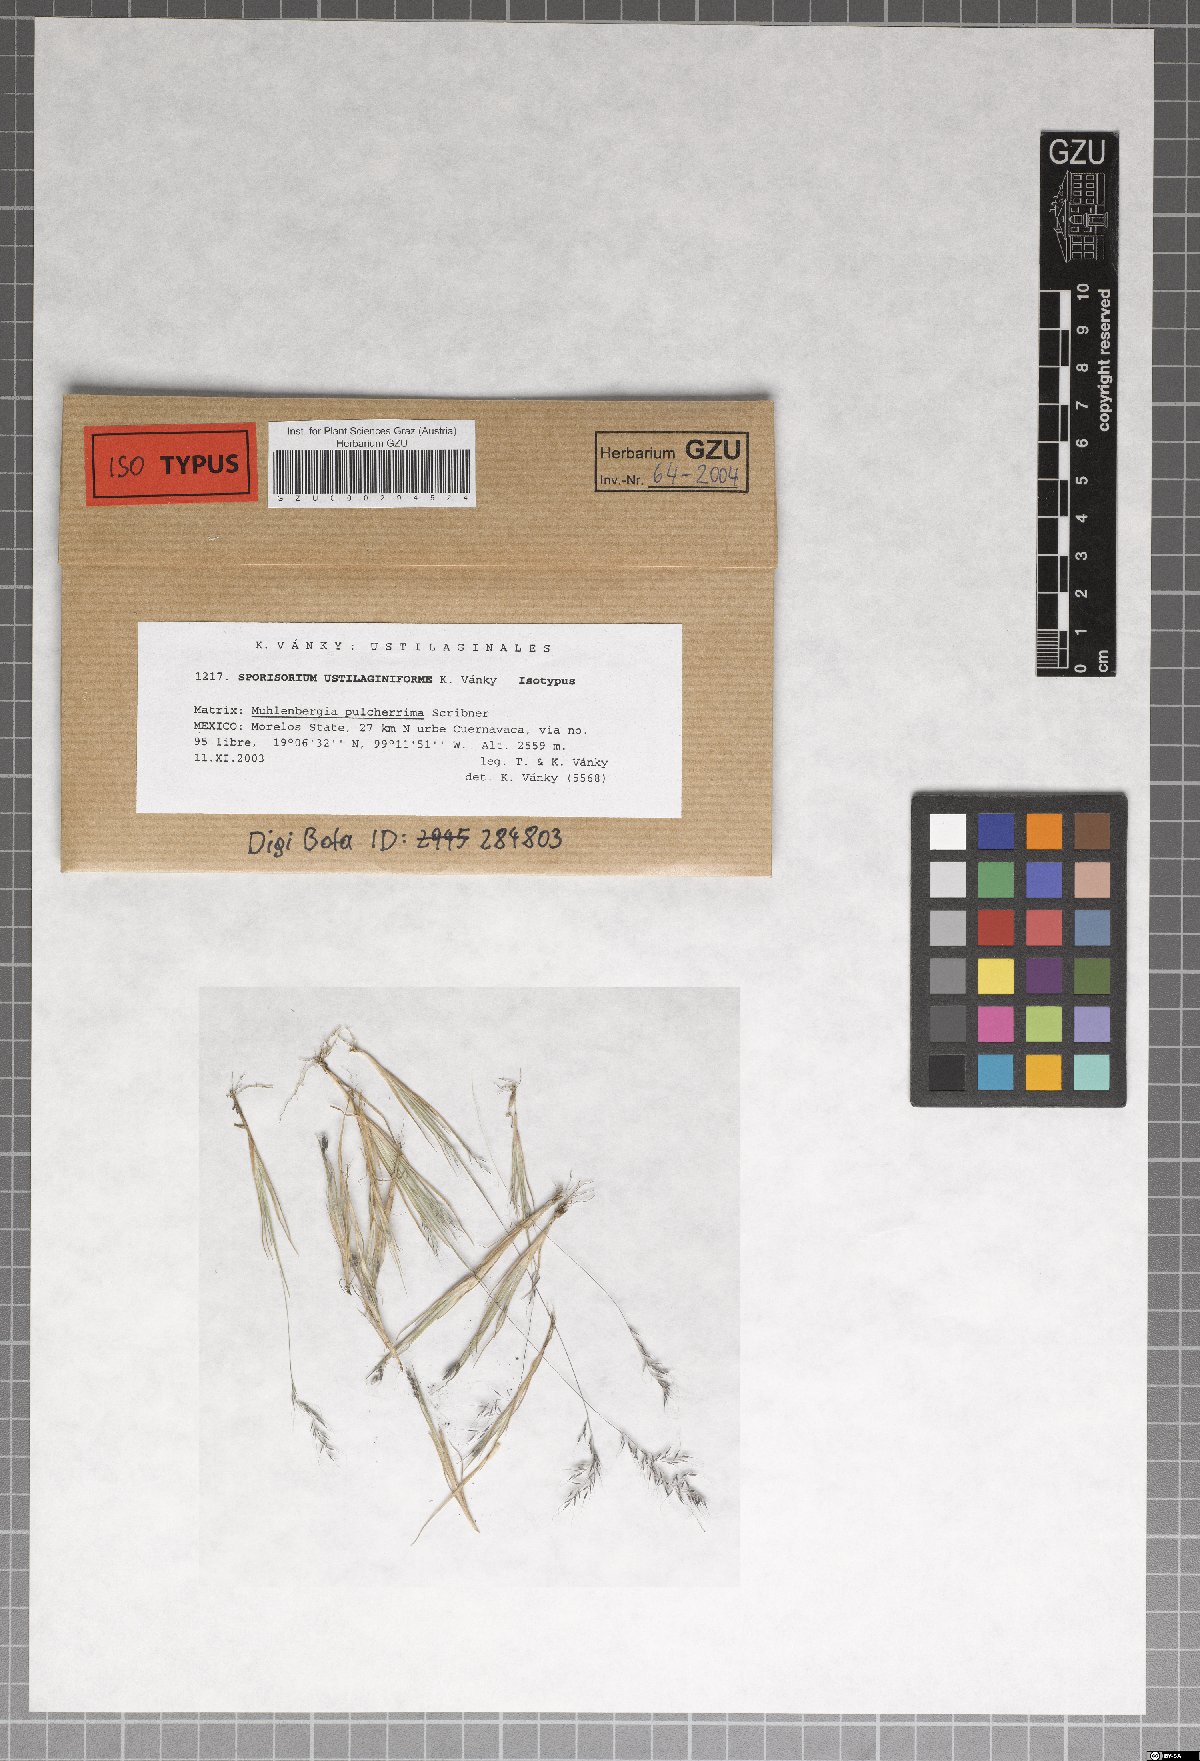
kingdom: Fungi
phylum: Basidiomycota
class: Ustilaginomycetes
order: Ustilaginales
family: Ustilaginaceae
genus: Sporisorium
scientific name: Sporisorium ustilaginiforme
